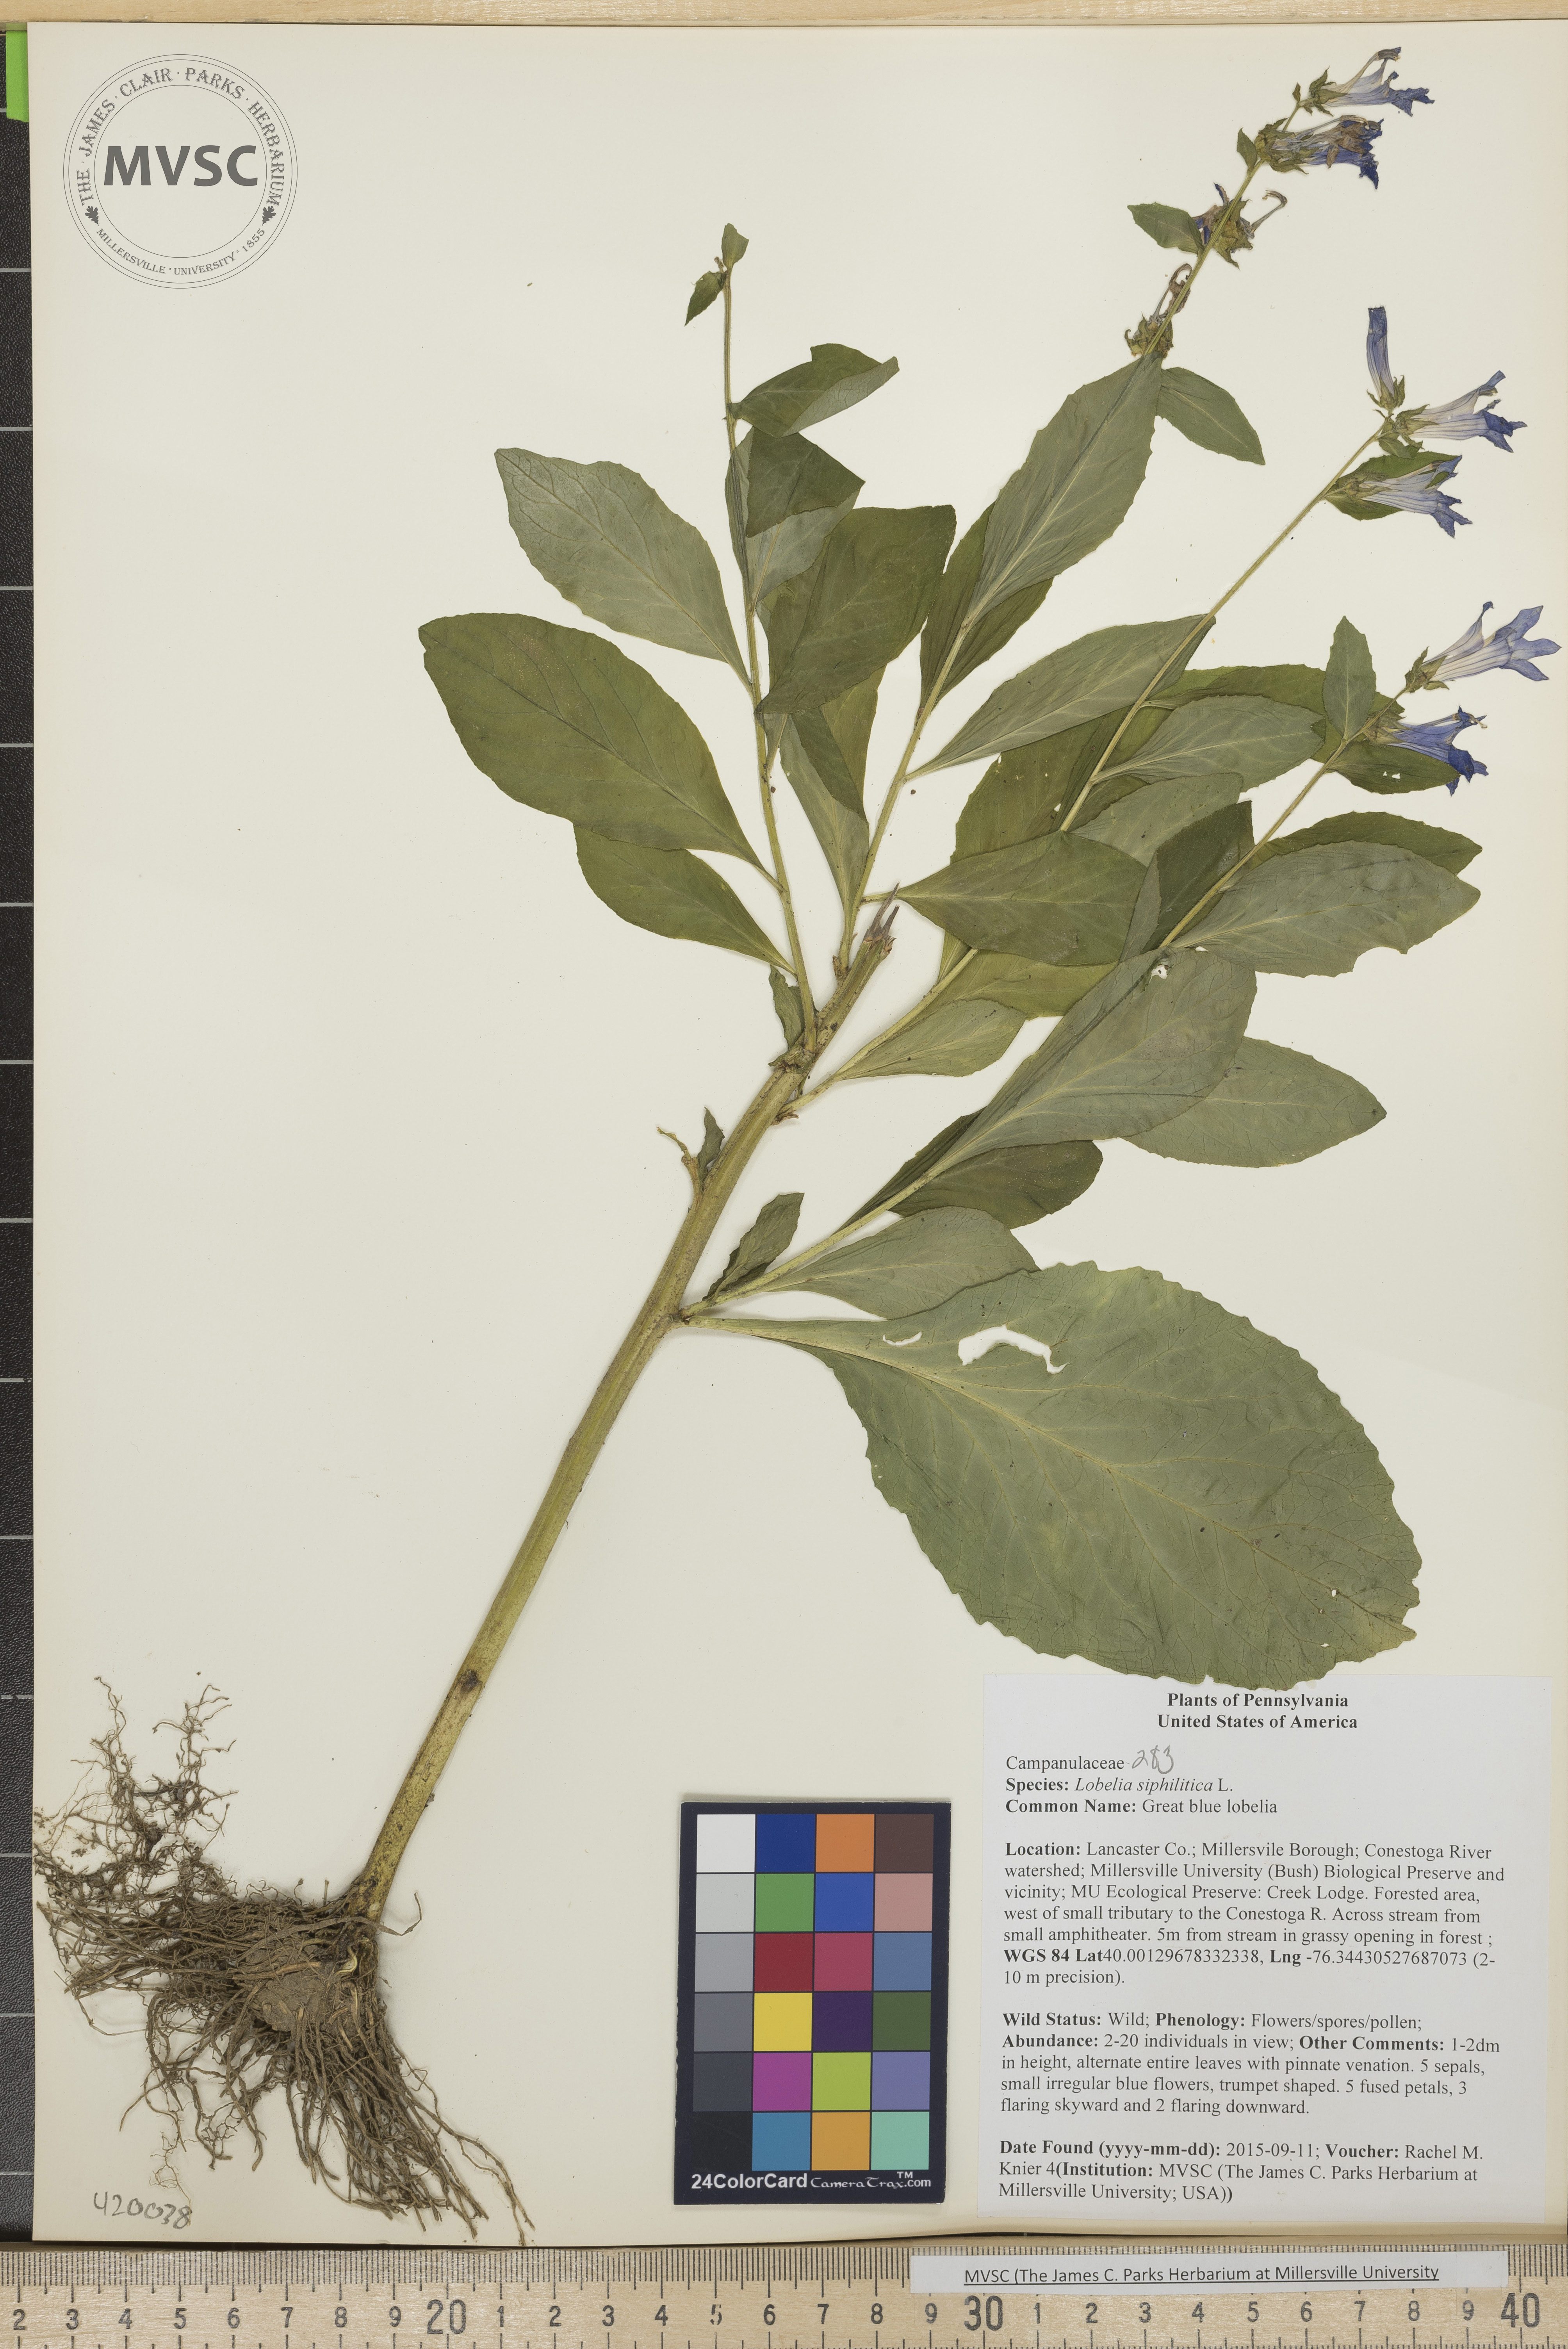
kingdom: Plantae
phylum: Tracheophyta
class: Magnoliopsida
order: Asterales
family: Campanulaceae
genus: Lobelia
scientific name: Lobelia siphilitica
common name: Great blue lobelia
